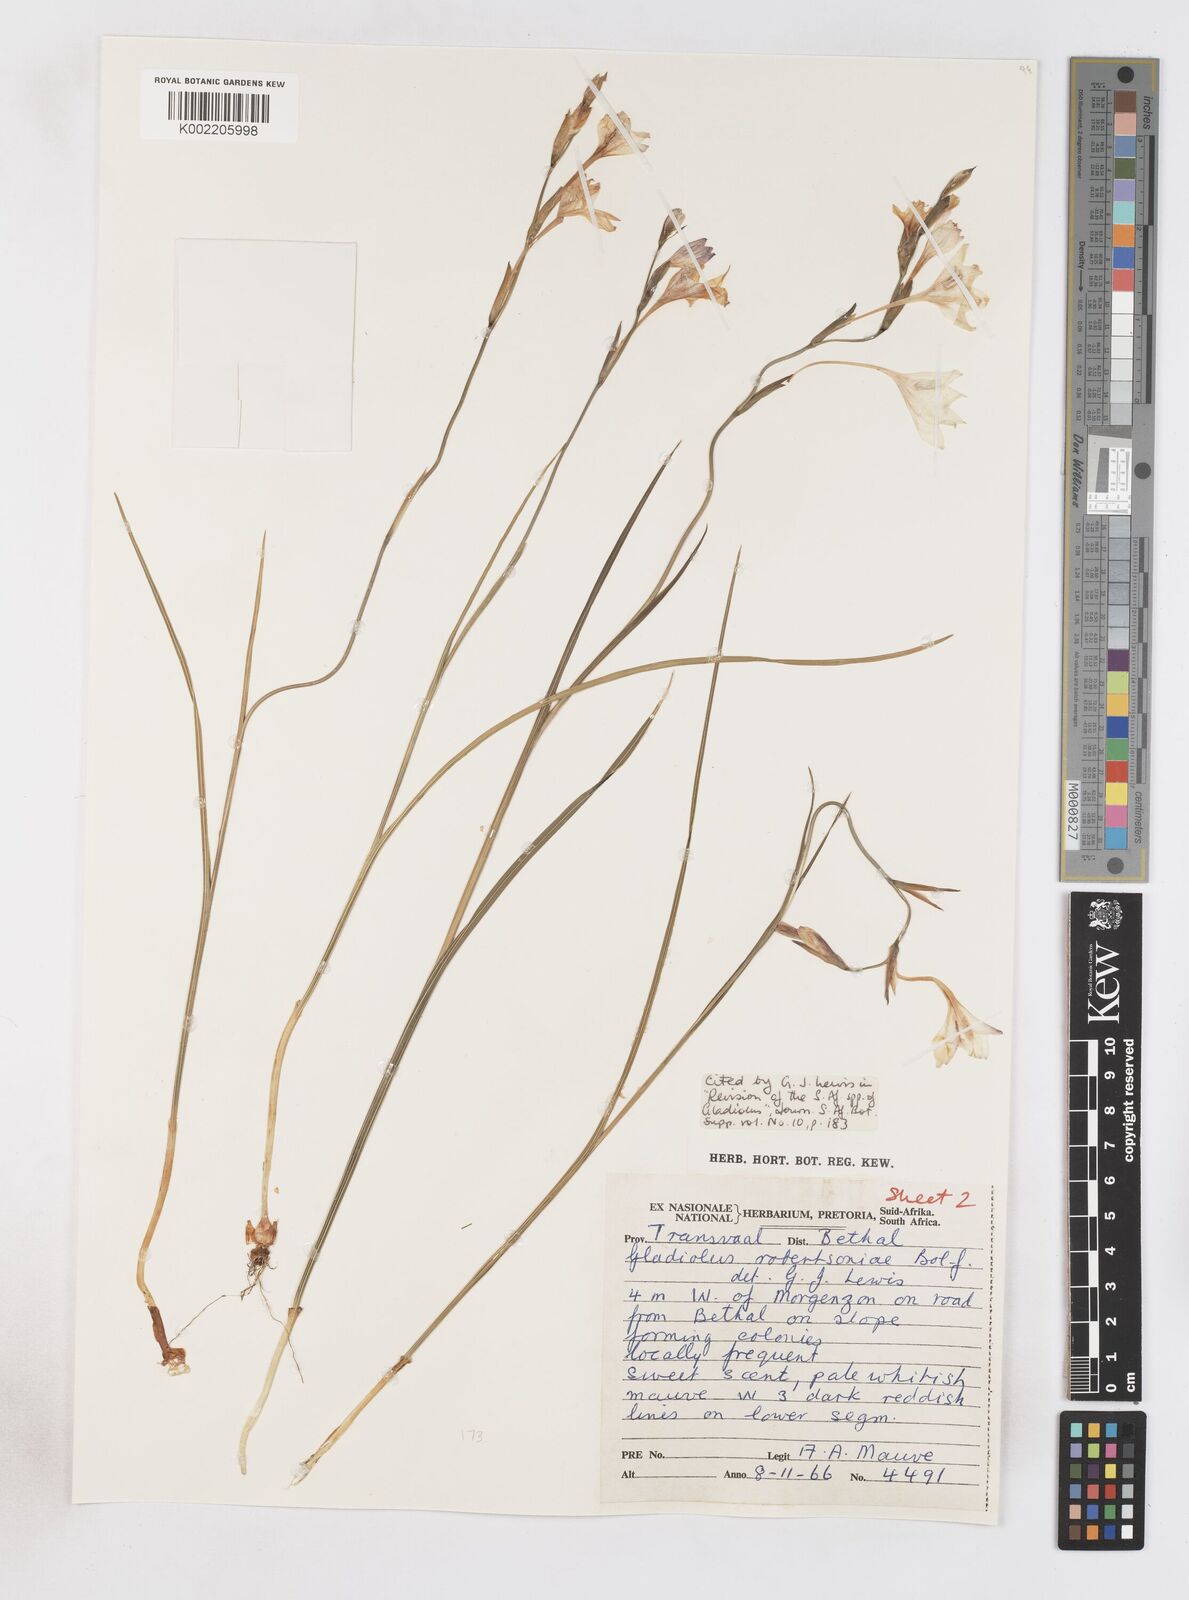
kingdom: Plantae
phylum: Tracheophyta
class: Liliopsida
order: Asparagales
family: Iridaceae
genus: Gladiolus
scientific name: Gladiolus robertsoniae
